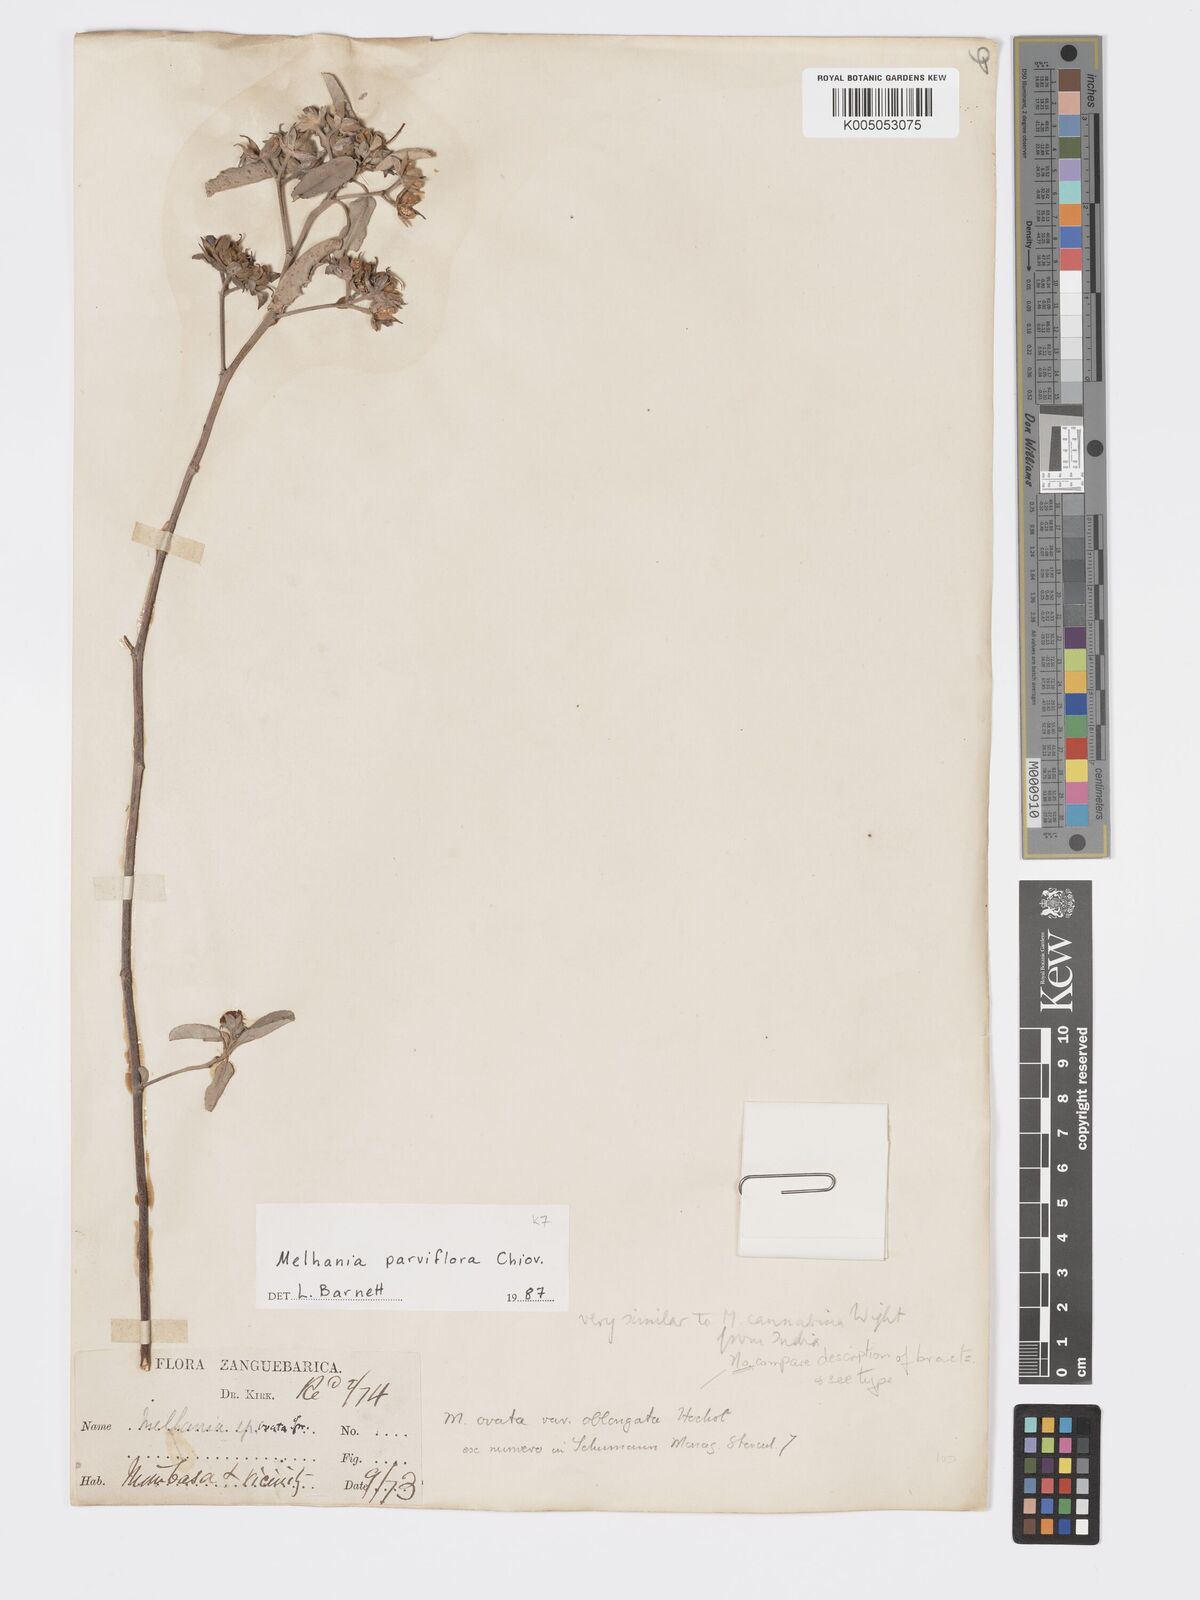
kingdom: Plantae
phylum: Tracheophyta
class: Magnoliopsida
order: Malvales
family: Malvaceae
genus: Melhania
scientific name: Melhania parviflora
